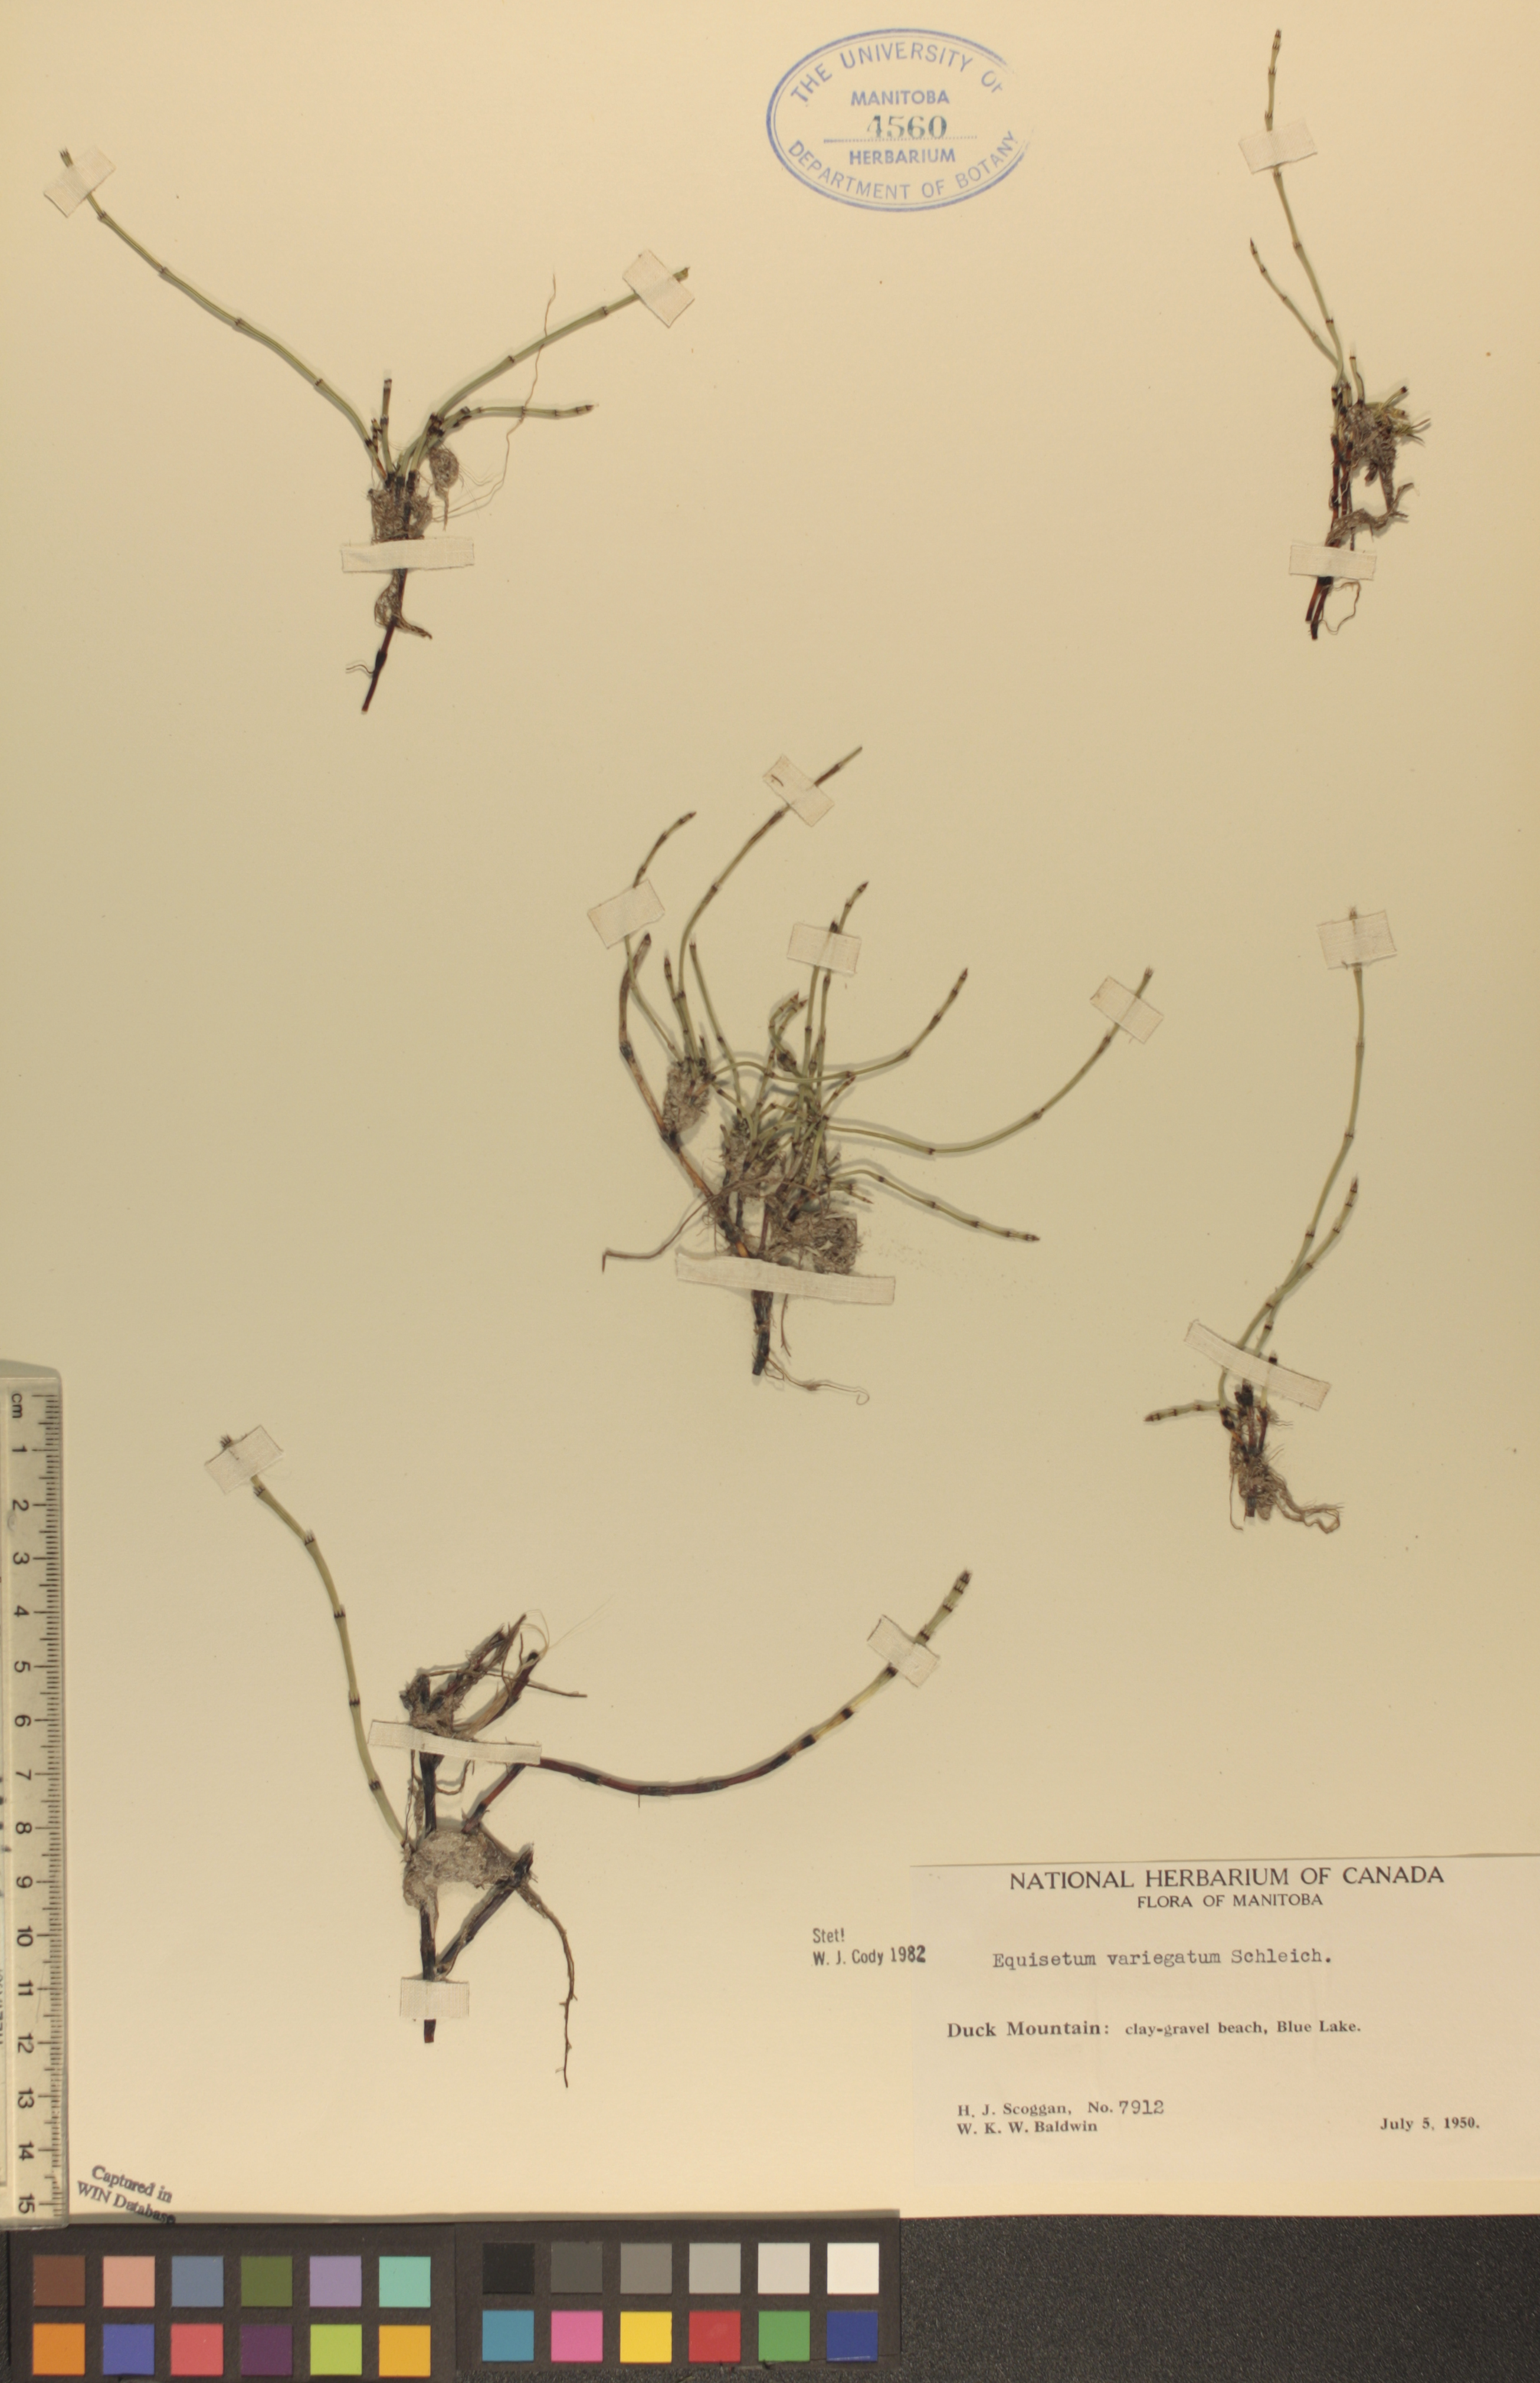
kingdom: Plantae
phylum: Tracheophyta
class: Polypodiopsida
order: Equisetales
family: Equisetaceae
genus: Equisetum
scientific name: Equisetum variegatum
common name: Variegated horsetail
